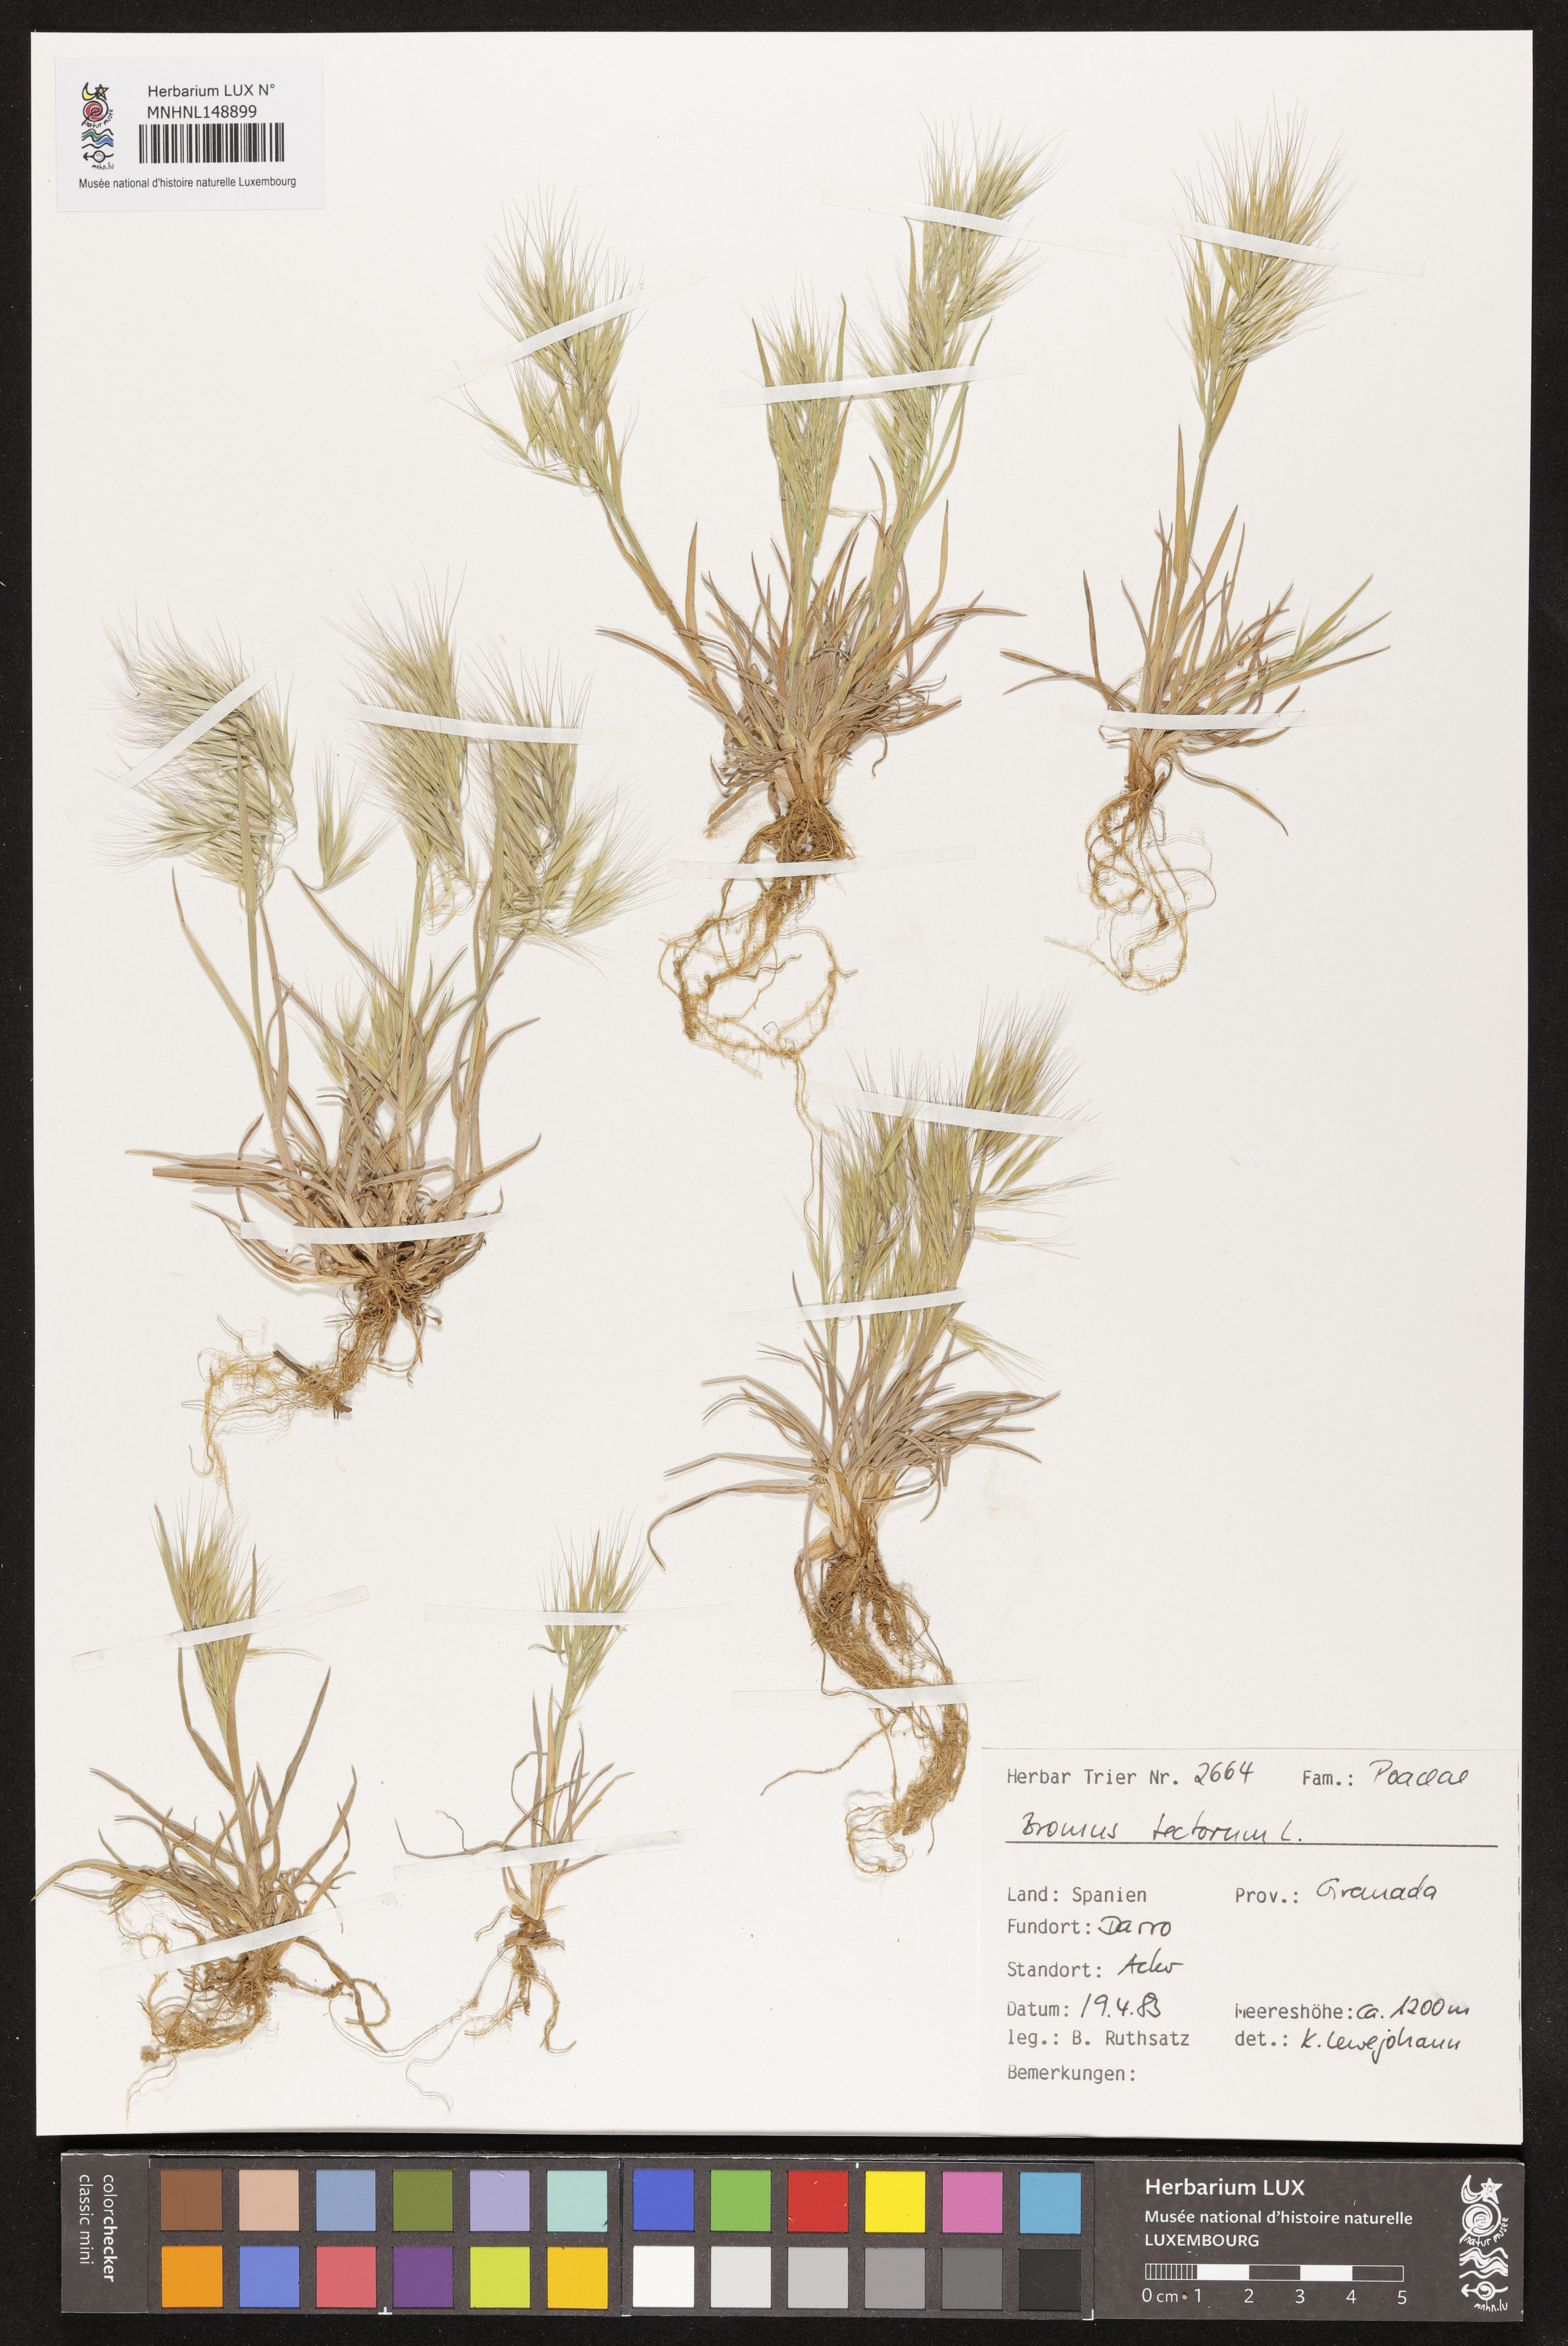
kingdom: Plantae
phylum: Tracheophyta
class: Liliopsida
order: Poales
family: Poaceae
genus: Bromus
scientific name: Bromus tectorum
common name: Cheatgrass
